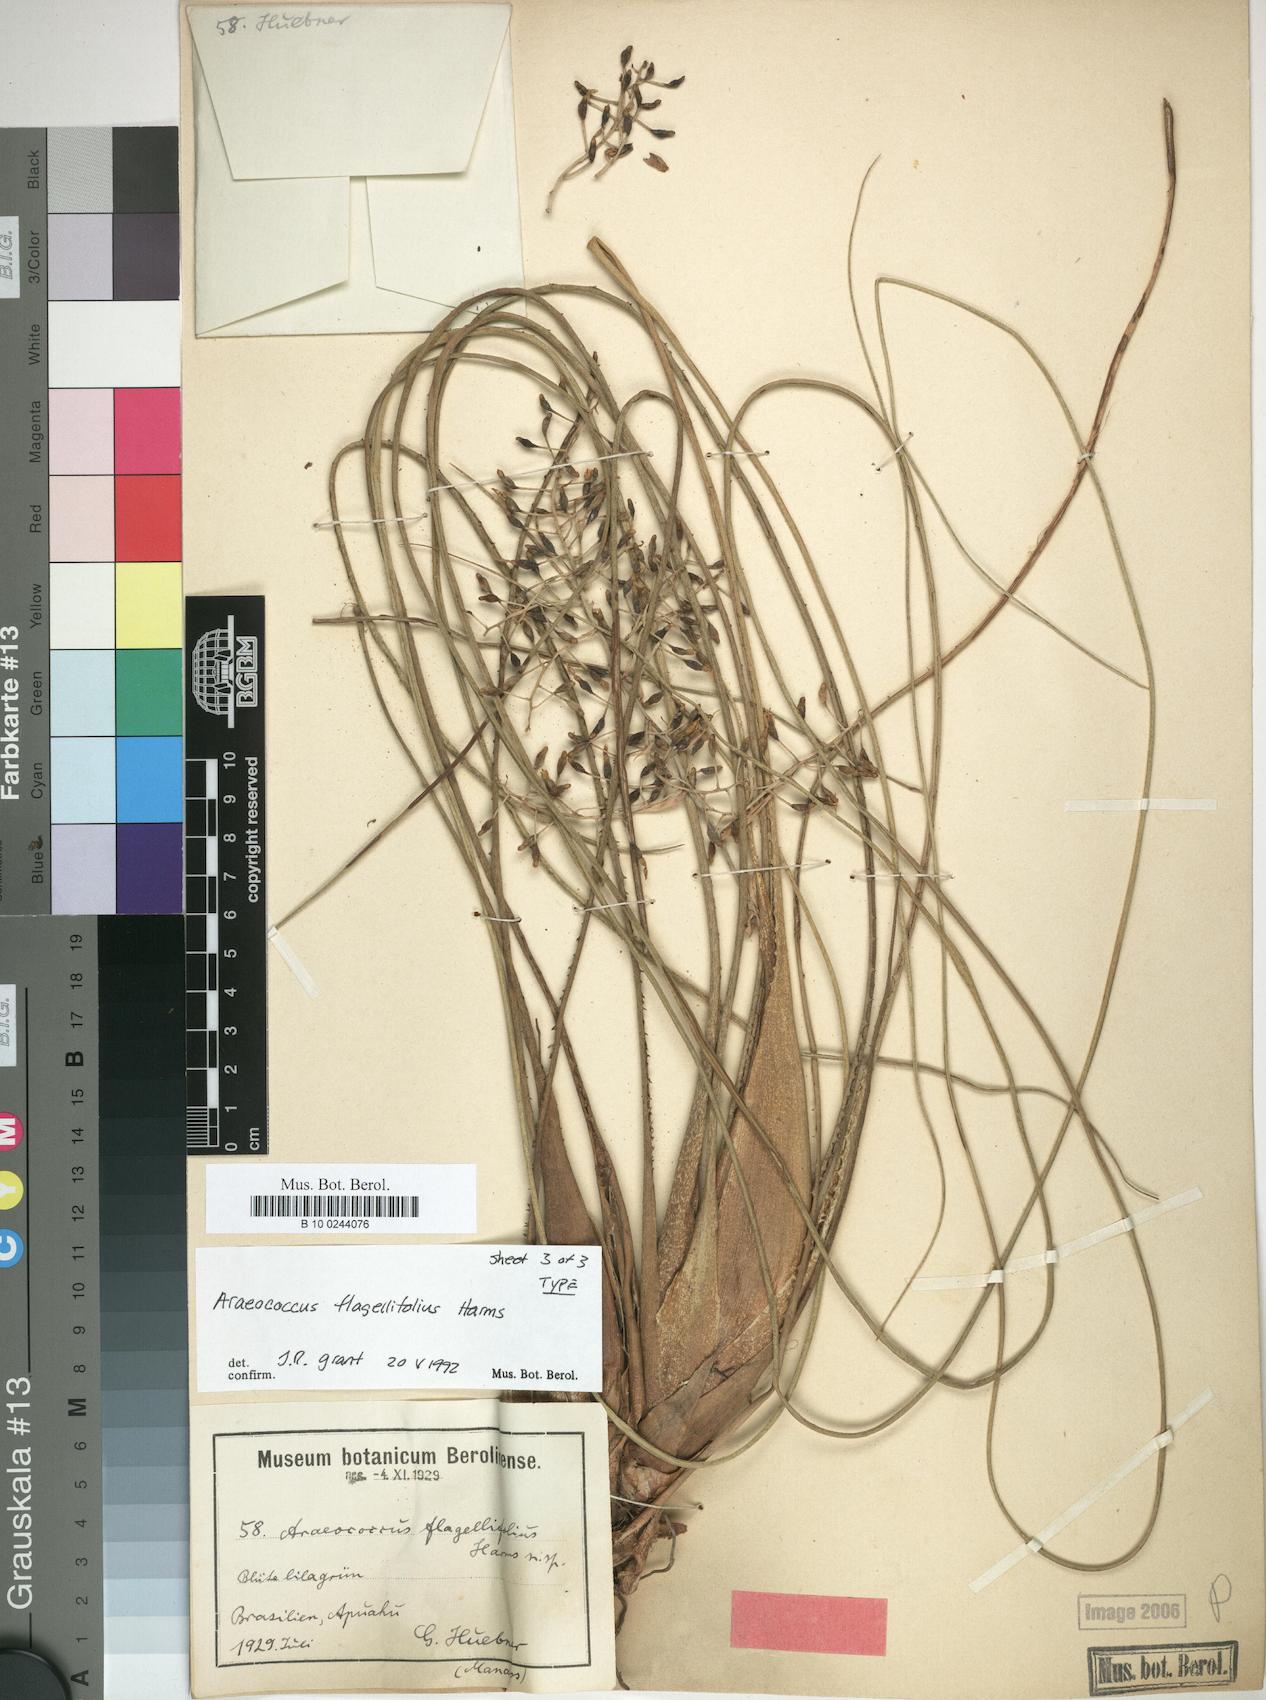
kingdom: Plantae
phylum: Tracheophyta
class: Liliopsida
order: Poales
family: Bromeliaceae
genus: Araeococcus
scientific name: Araeococcus flagellifolius
